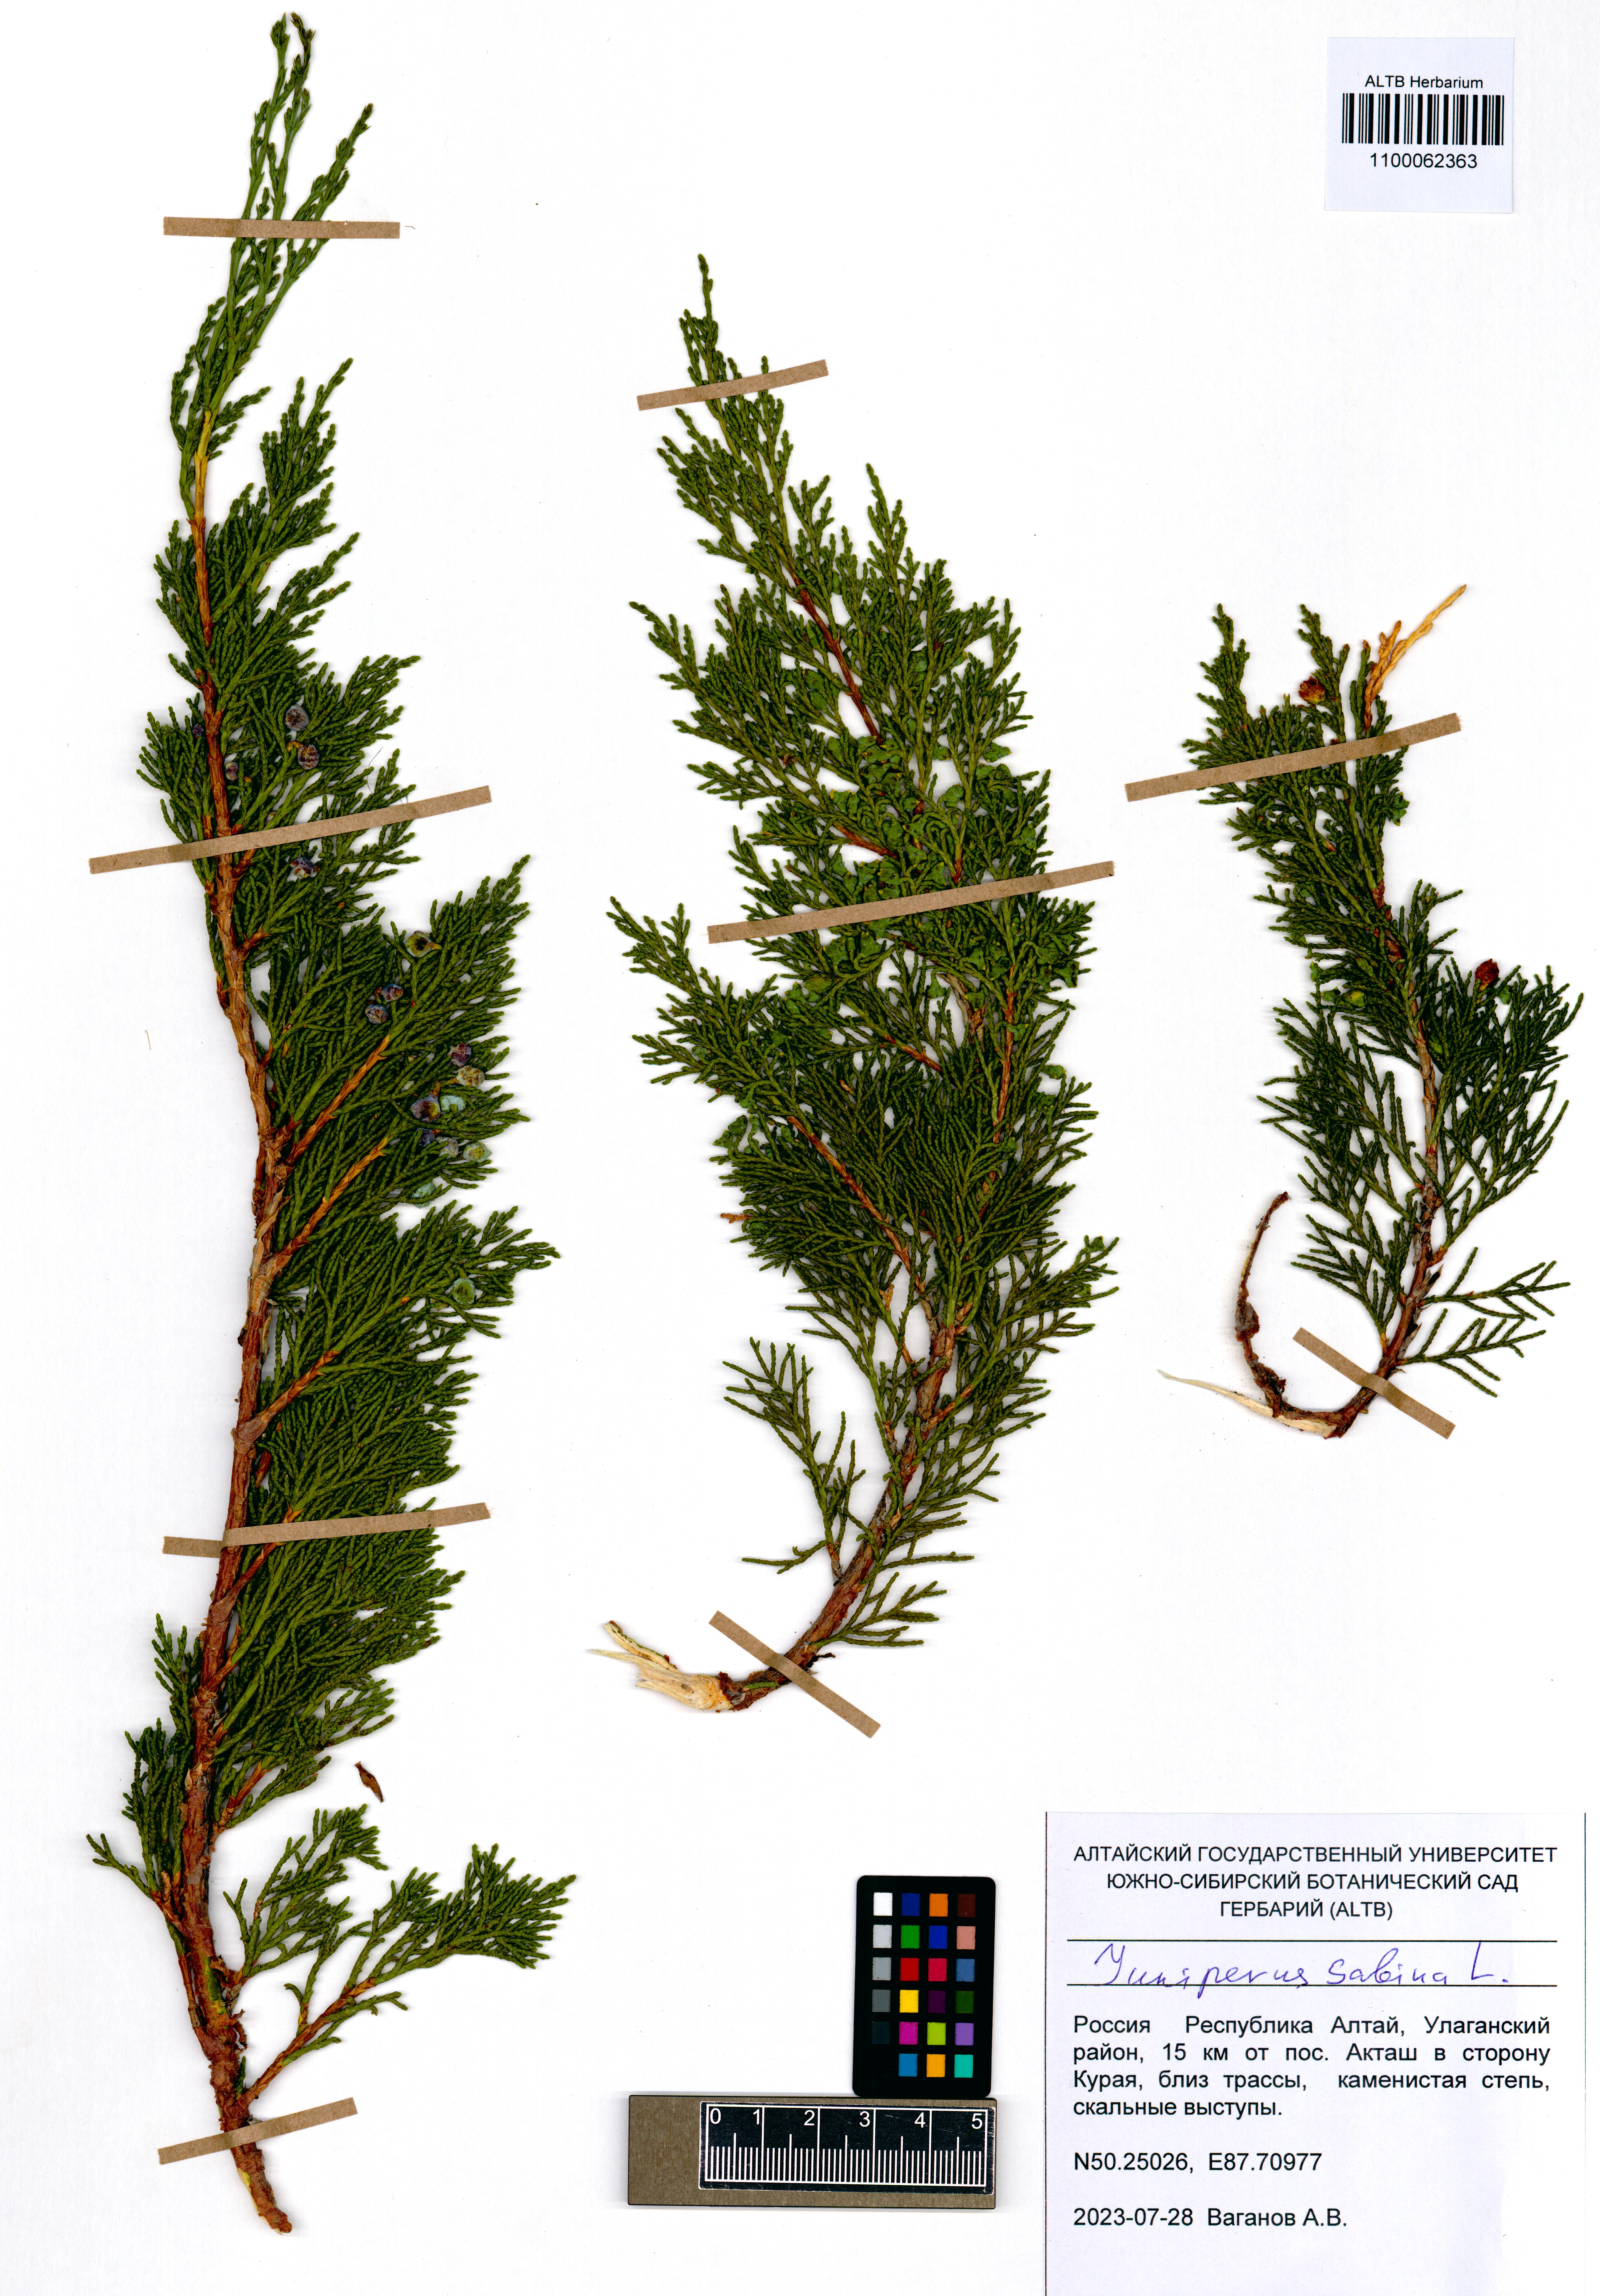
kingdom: Plantae
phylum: Tracheophyta
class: Pinopsida
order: Pinales
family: Cupressaceae
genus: Juniperus
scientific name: Juniperus sabina
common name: Savin
